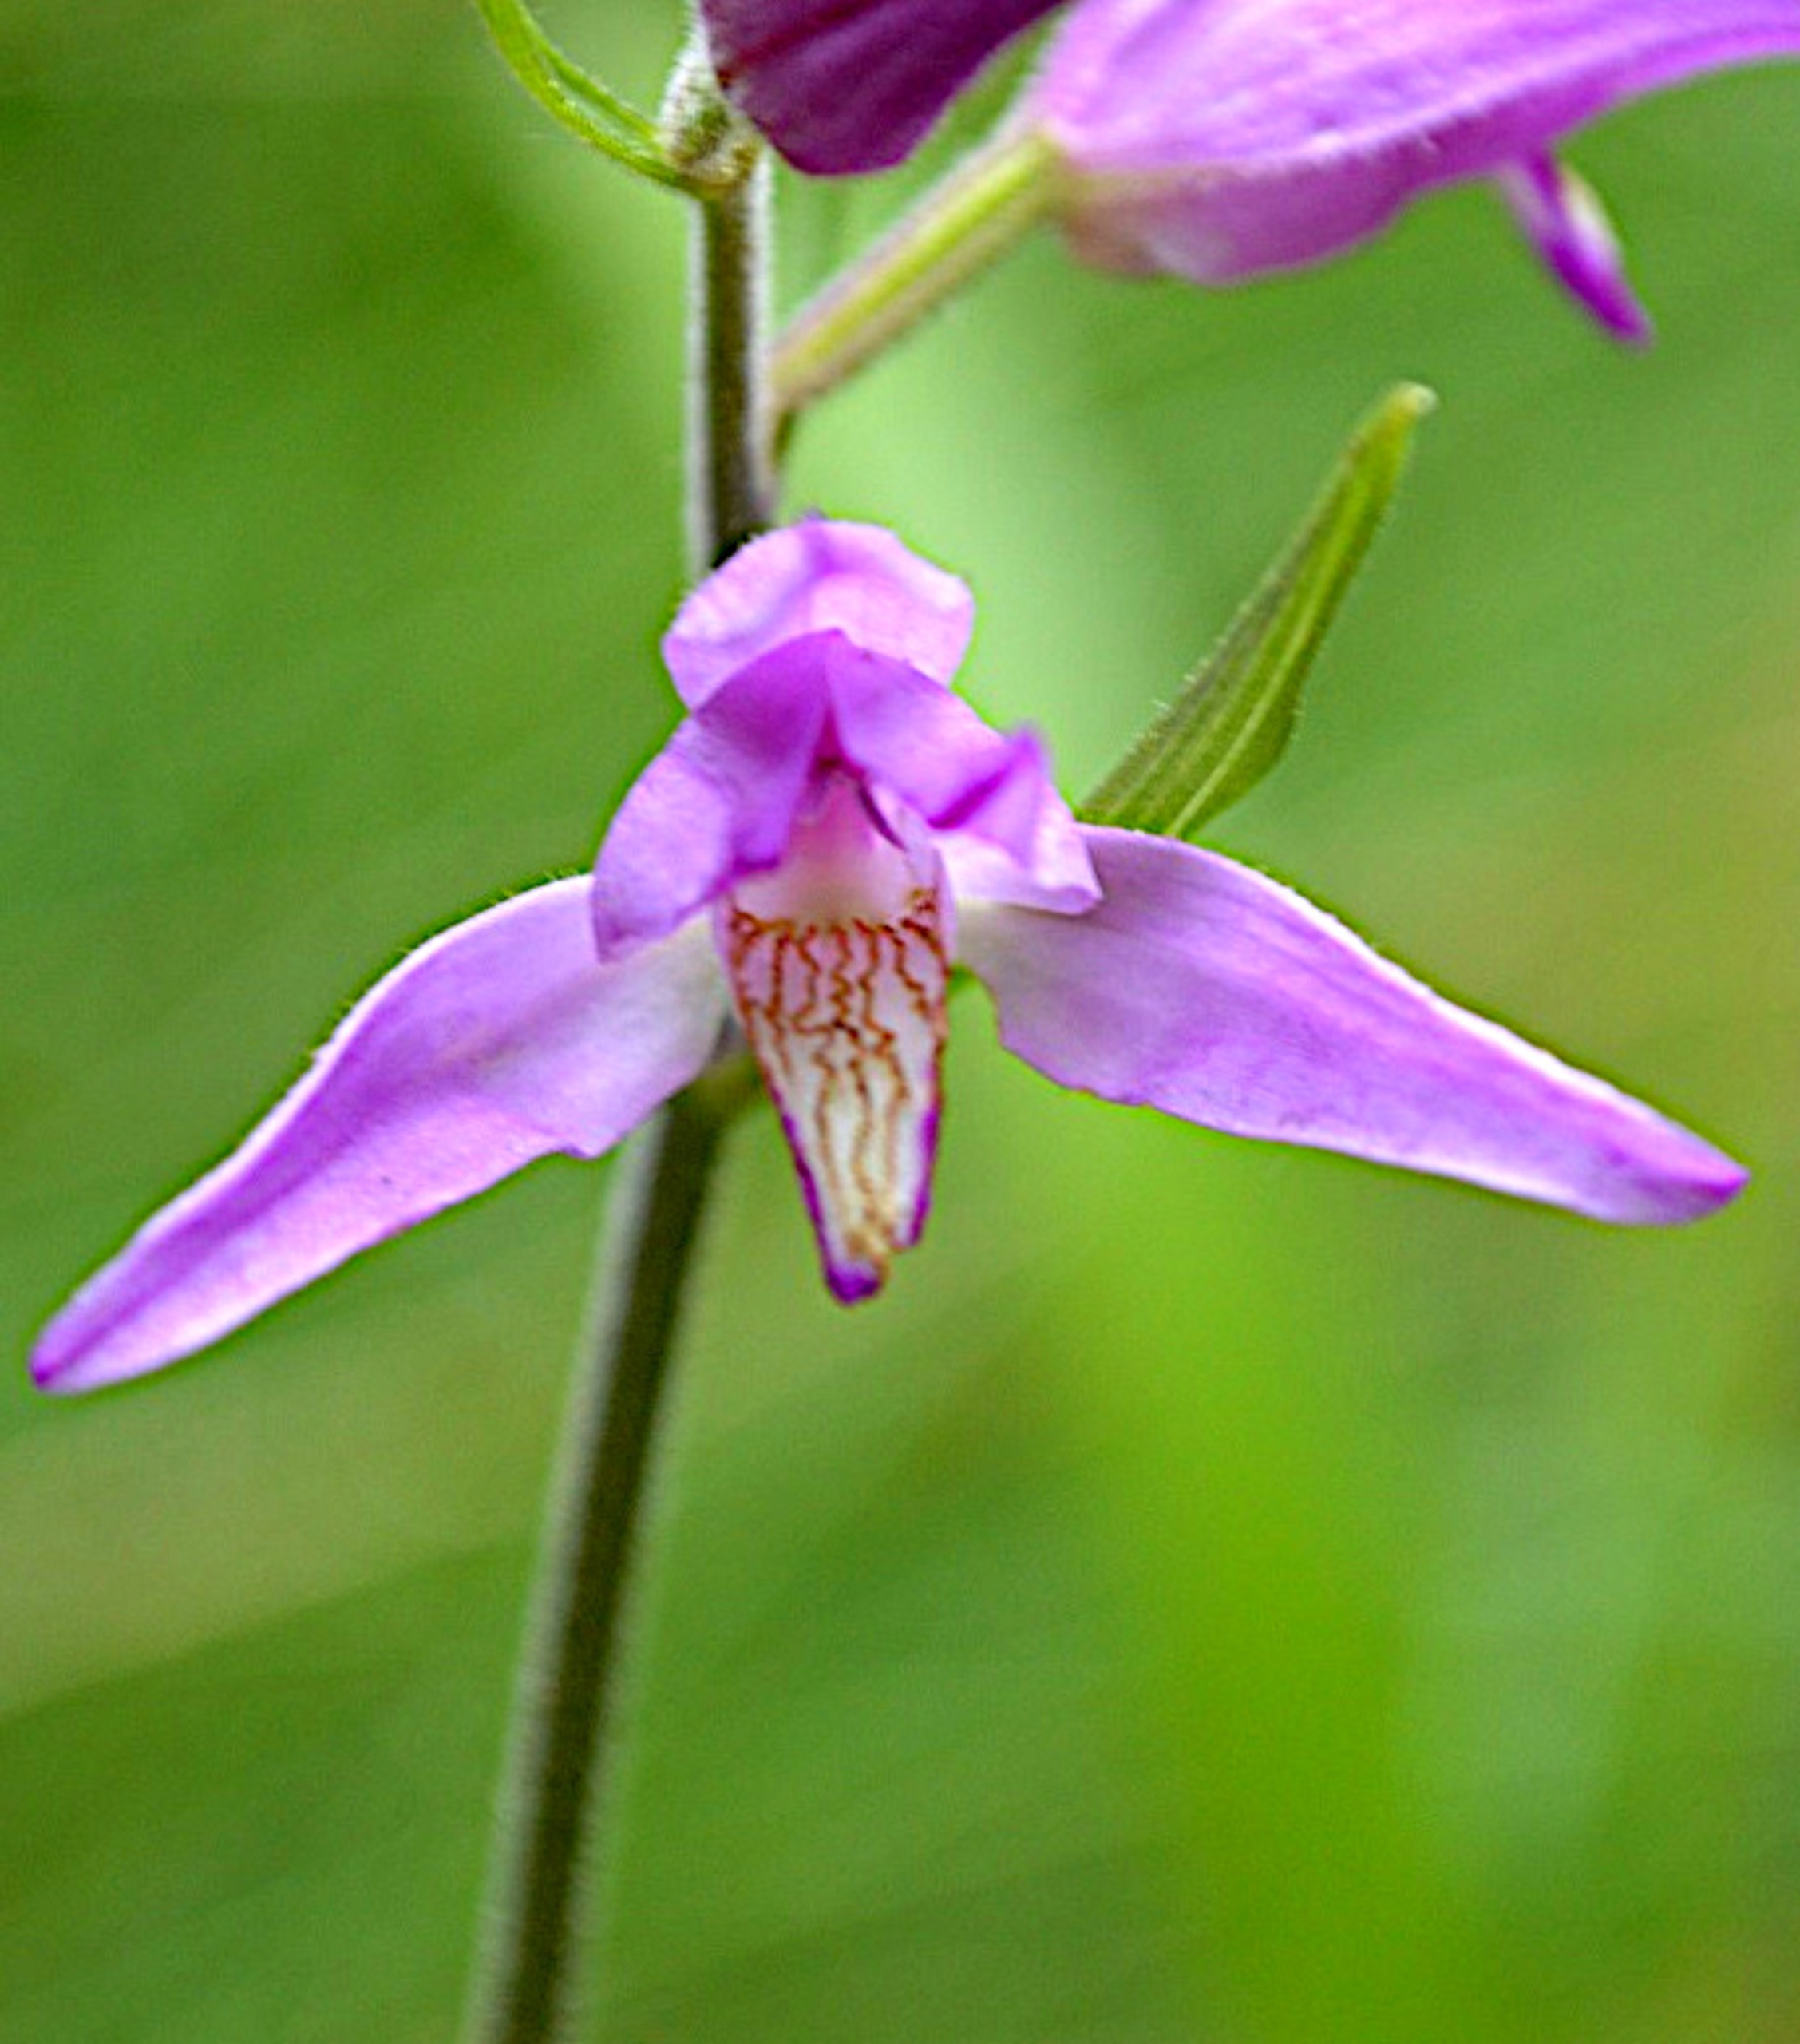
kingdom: Plantae
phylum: Tracheophyta
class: Liliopsida
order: Asparagales
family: Orchidaceae
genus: Cephalanthera
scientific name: Cephalanthera rubra
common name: Rød skovlilje
